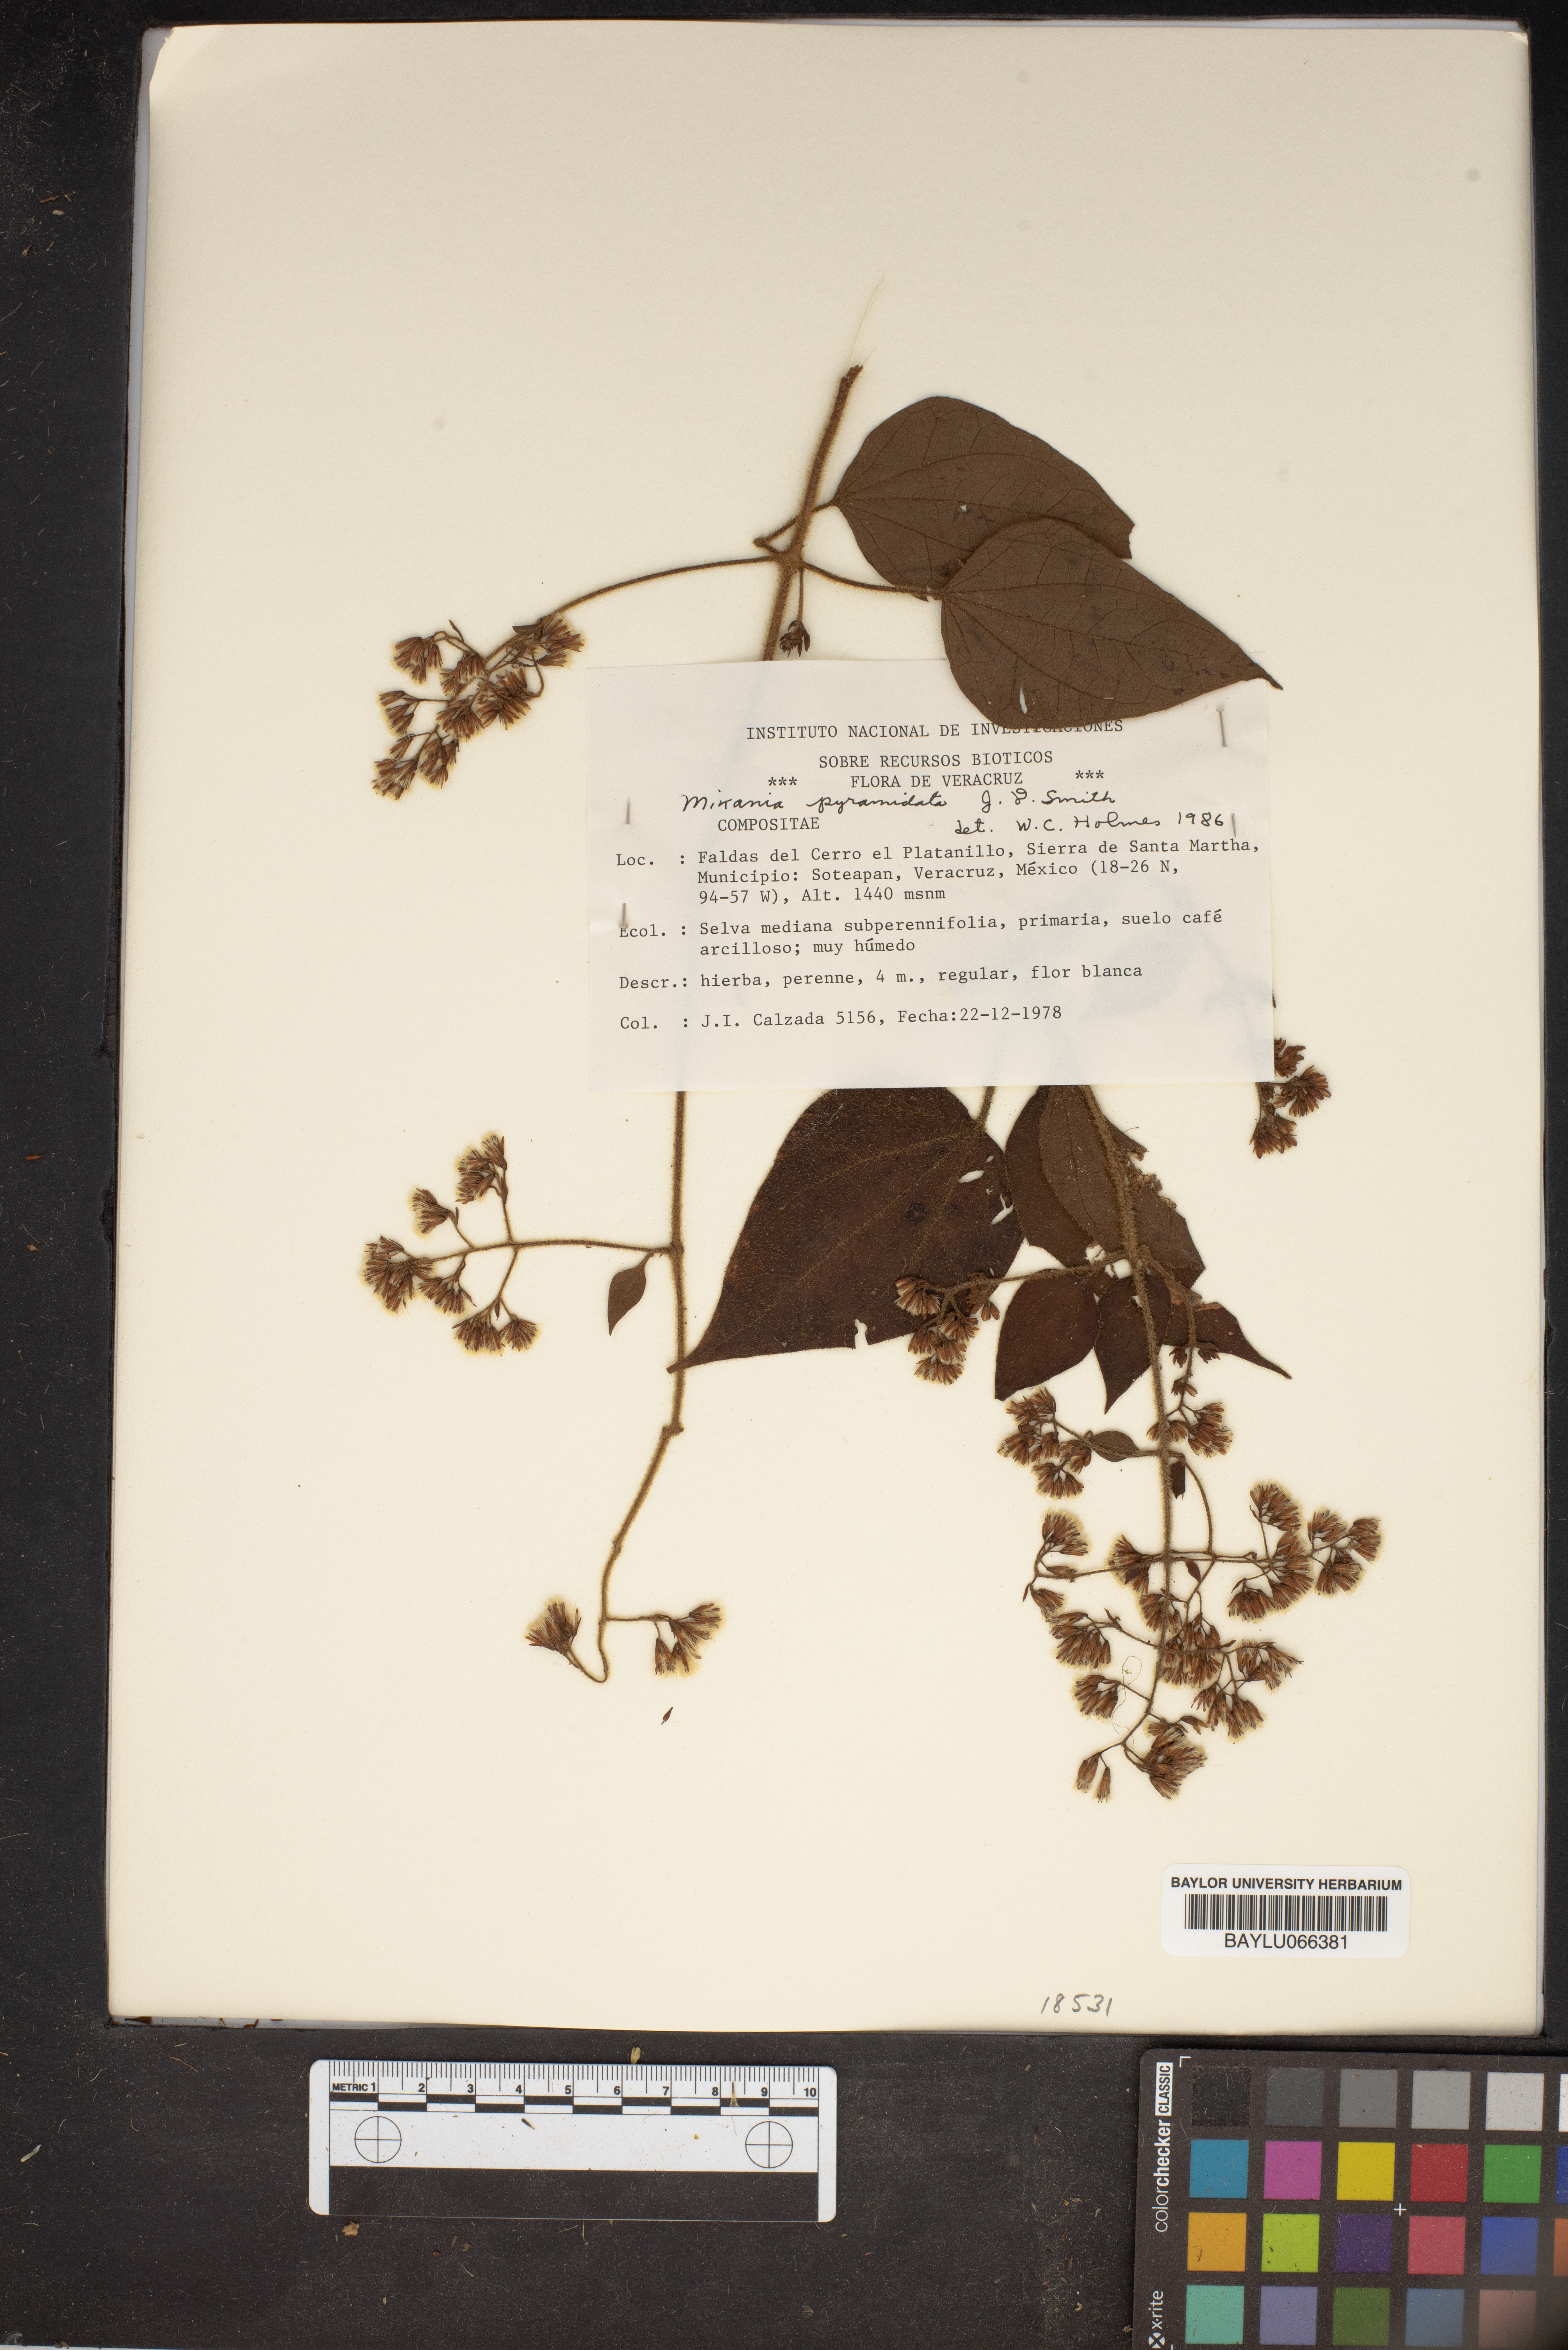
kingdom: Plantae
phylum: Tracheophyta
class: Magnoliopsida
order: Asterales
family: Asteraceae
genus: Mikania
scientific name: Mikania pyramidata
